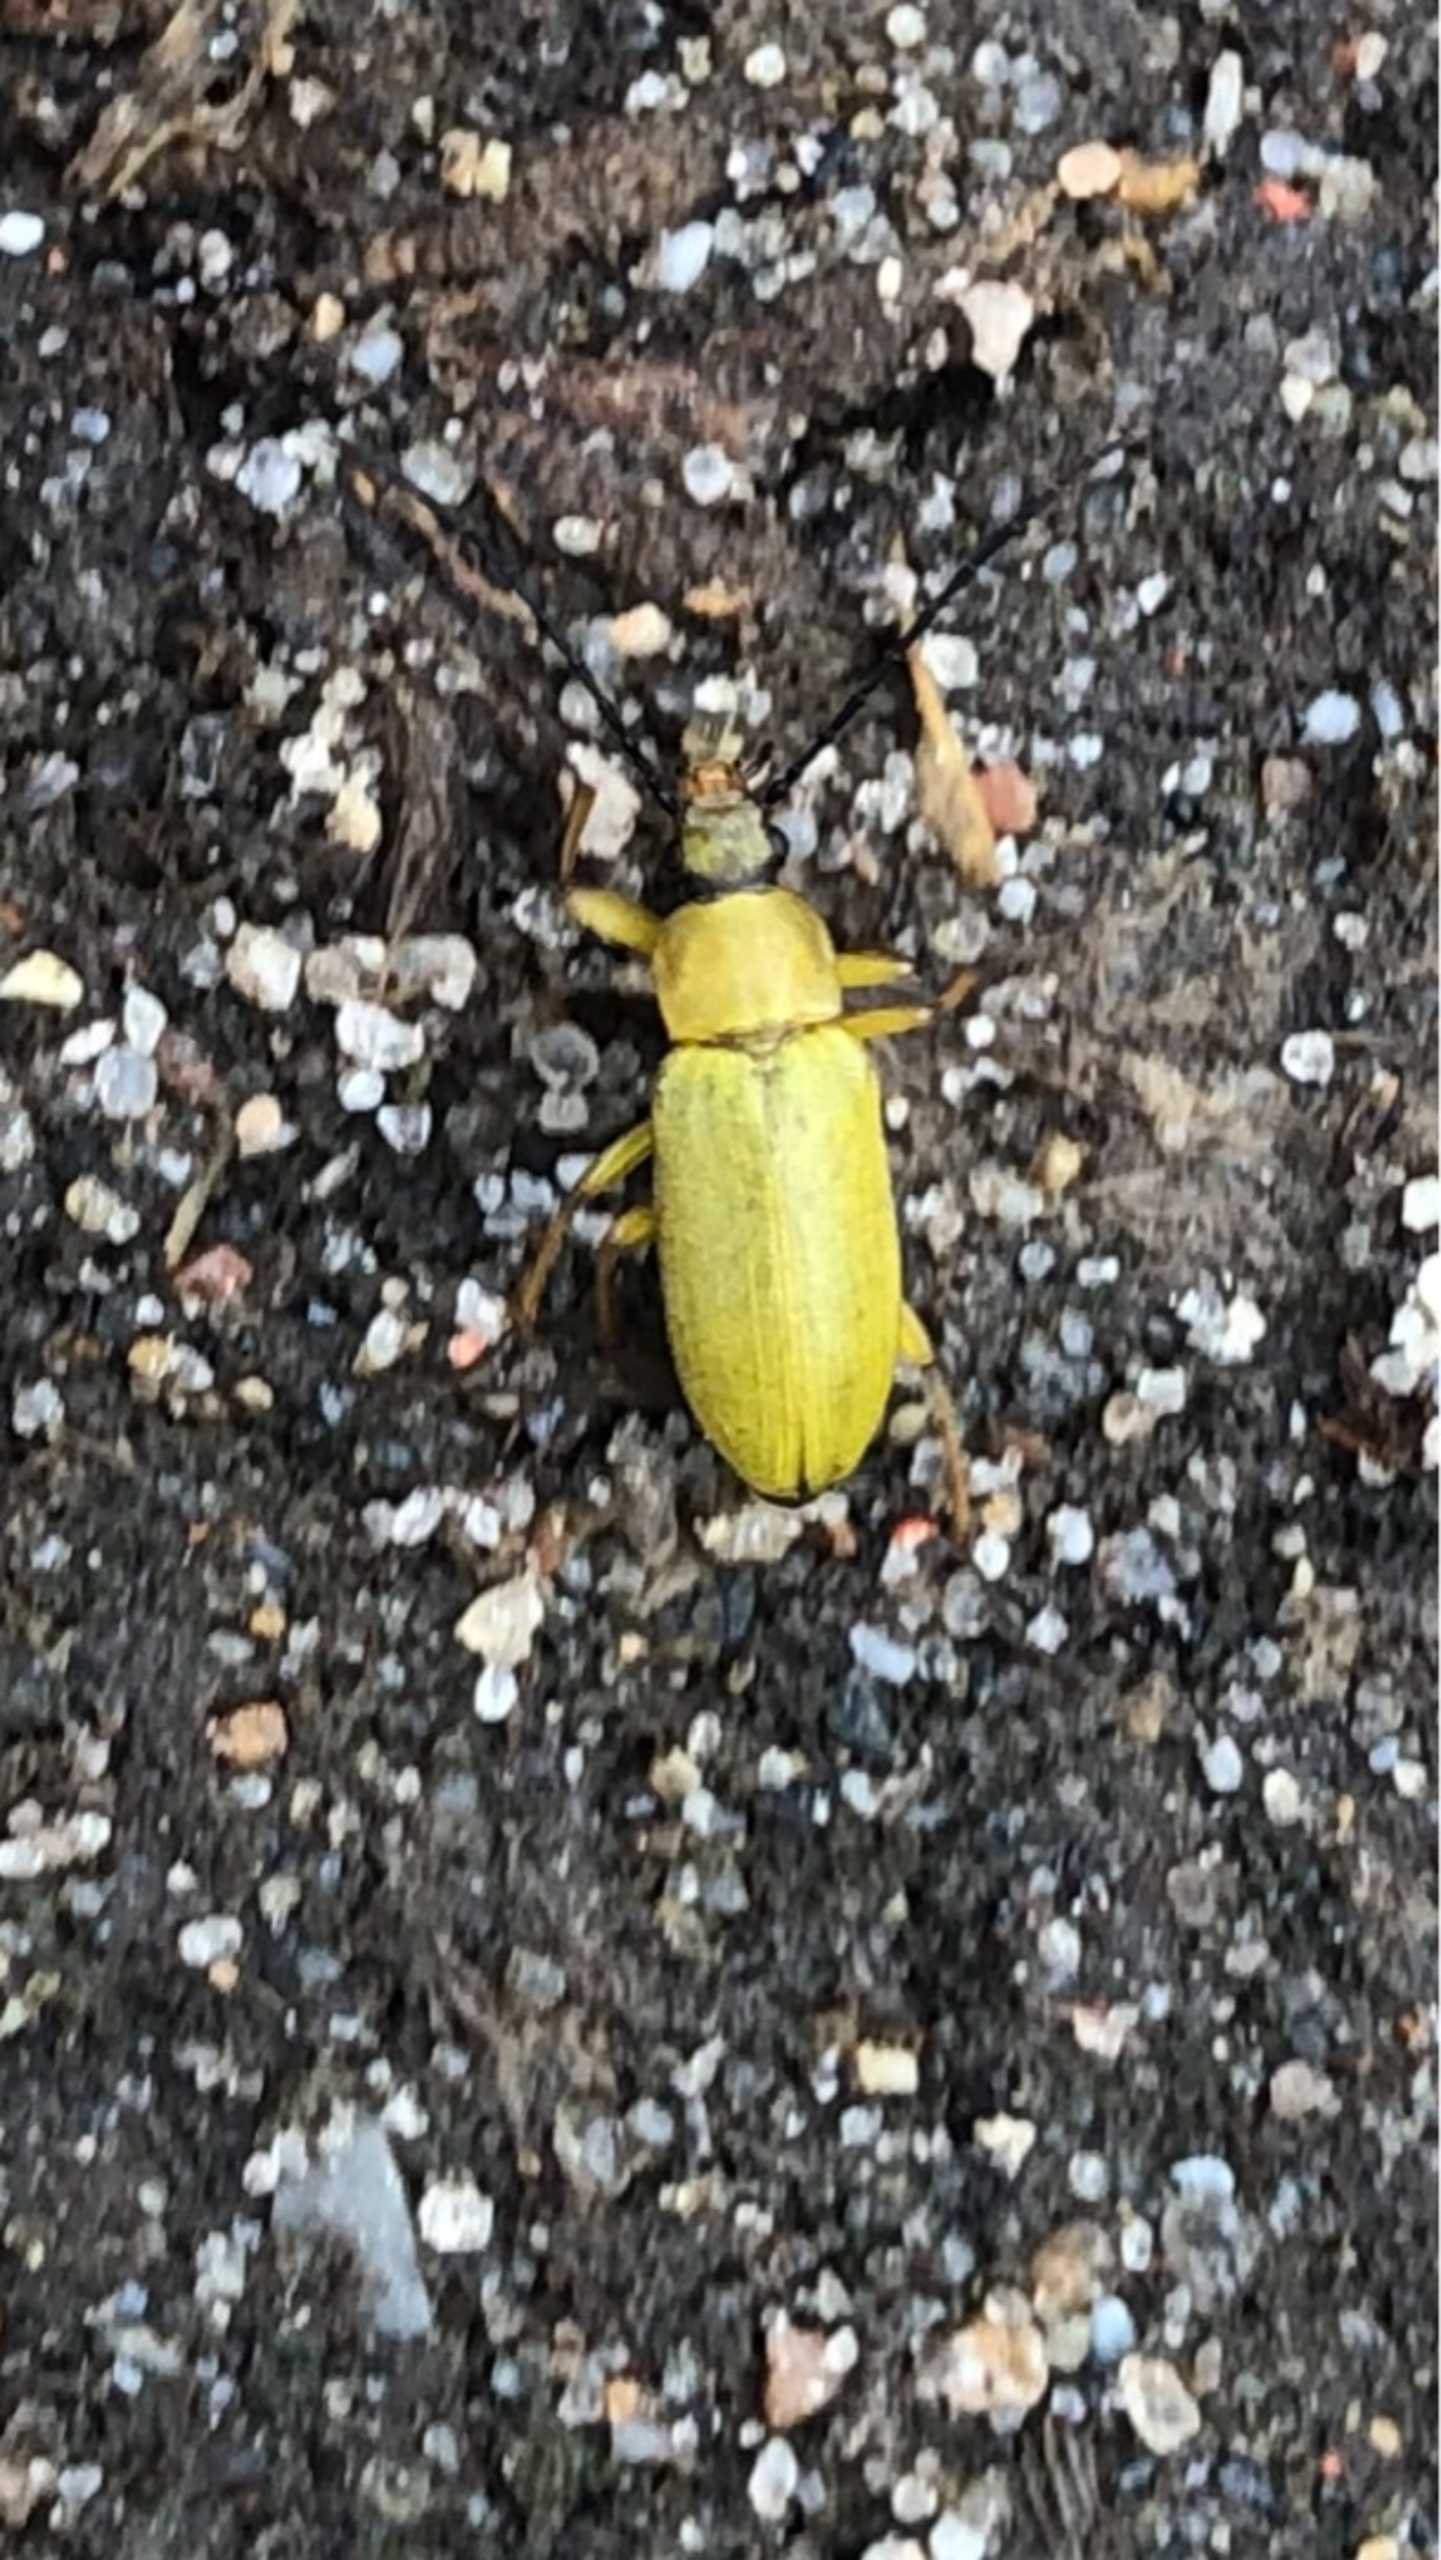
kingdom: Animalia
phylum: Arthropoda
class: Insecta
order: Coleoptera
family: Tenebrionidae
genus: Cteniopus
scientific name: Cteniopus sulphureus
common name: Svovlgul skyggebille
